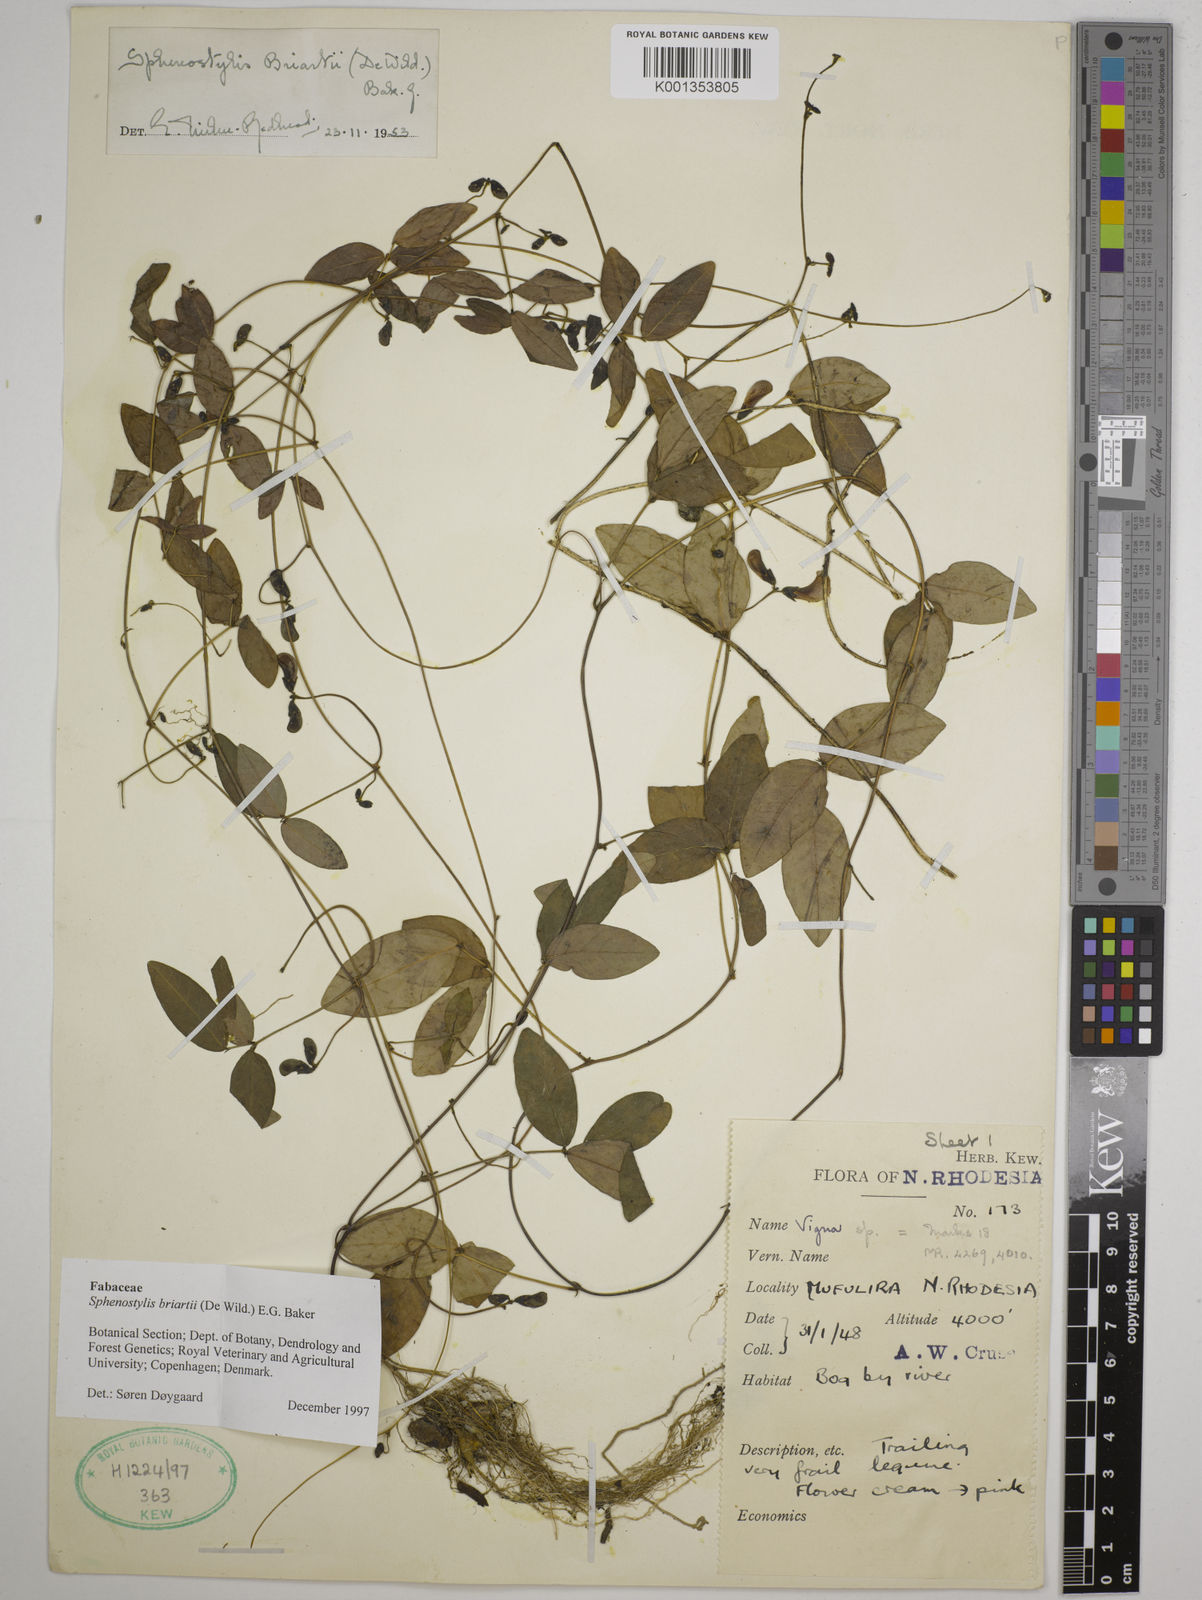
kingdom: Plantae
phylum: Tracheophyta
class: Magnoliopsida
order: Fabales
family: Fabaceae
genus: Sphenostylis
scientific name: Sphenostylis briartii
